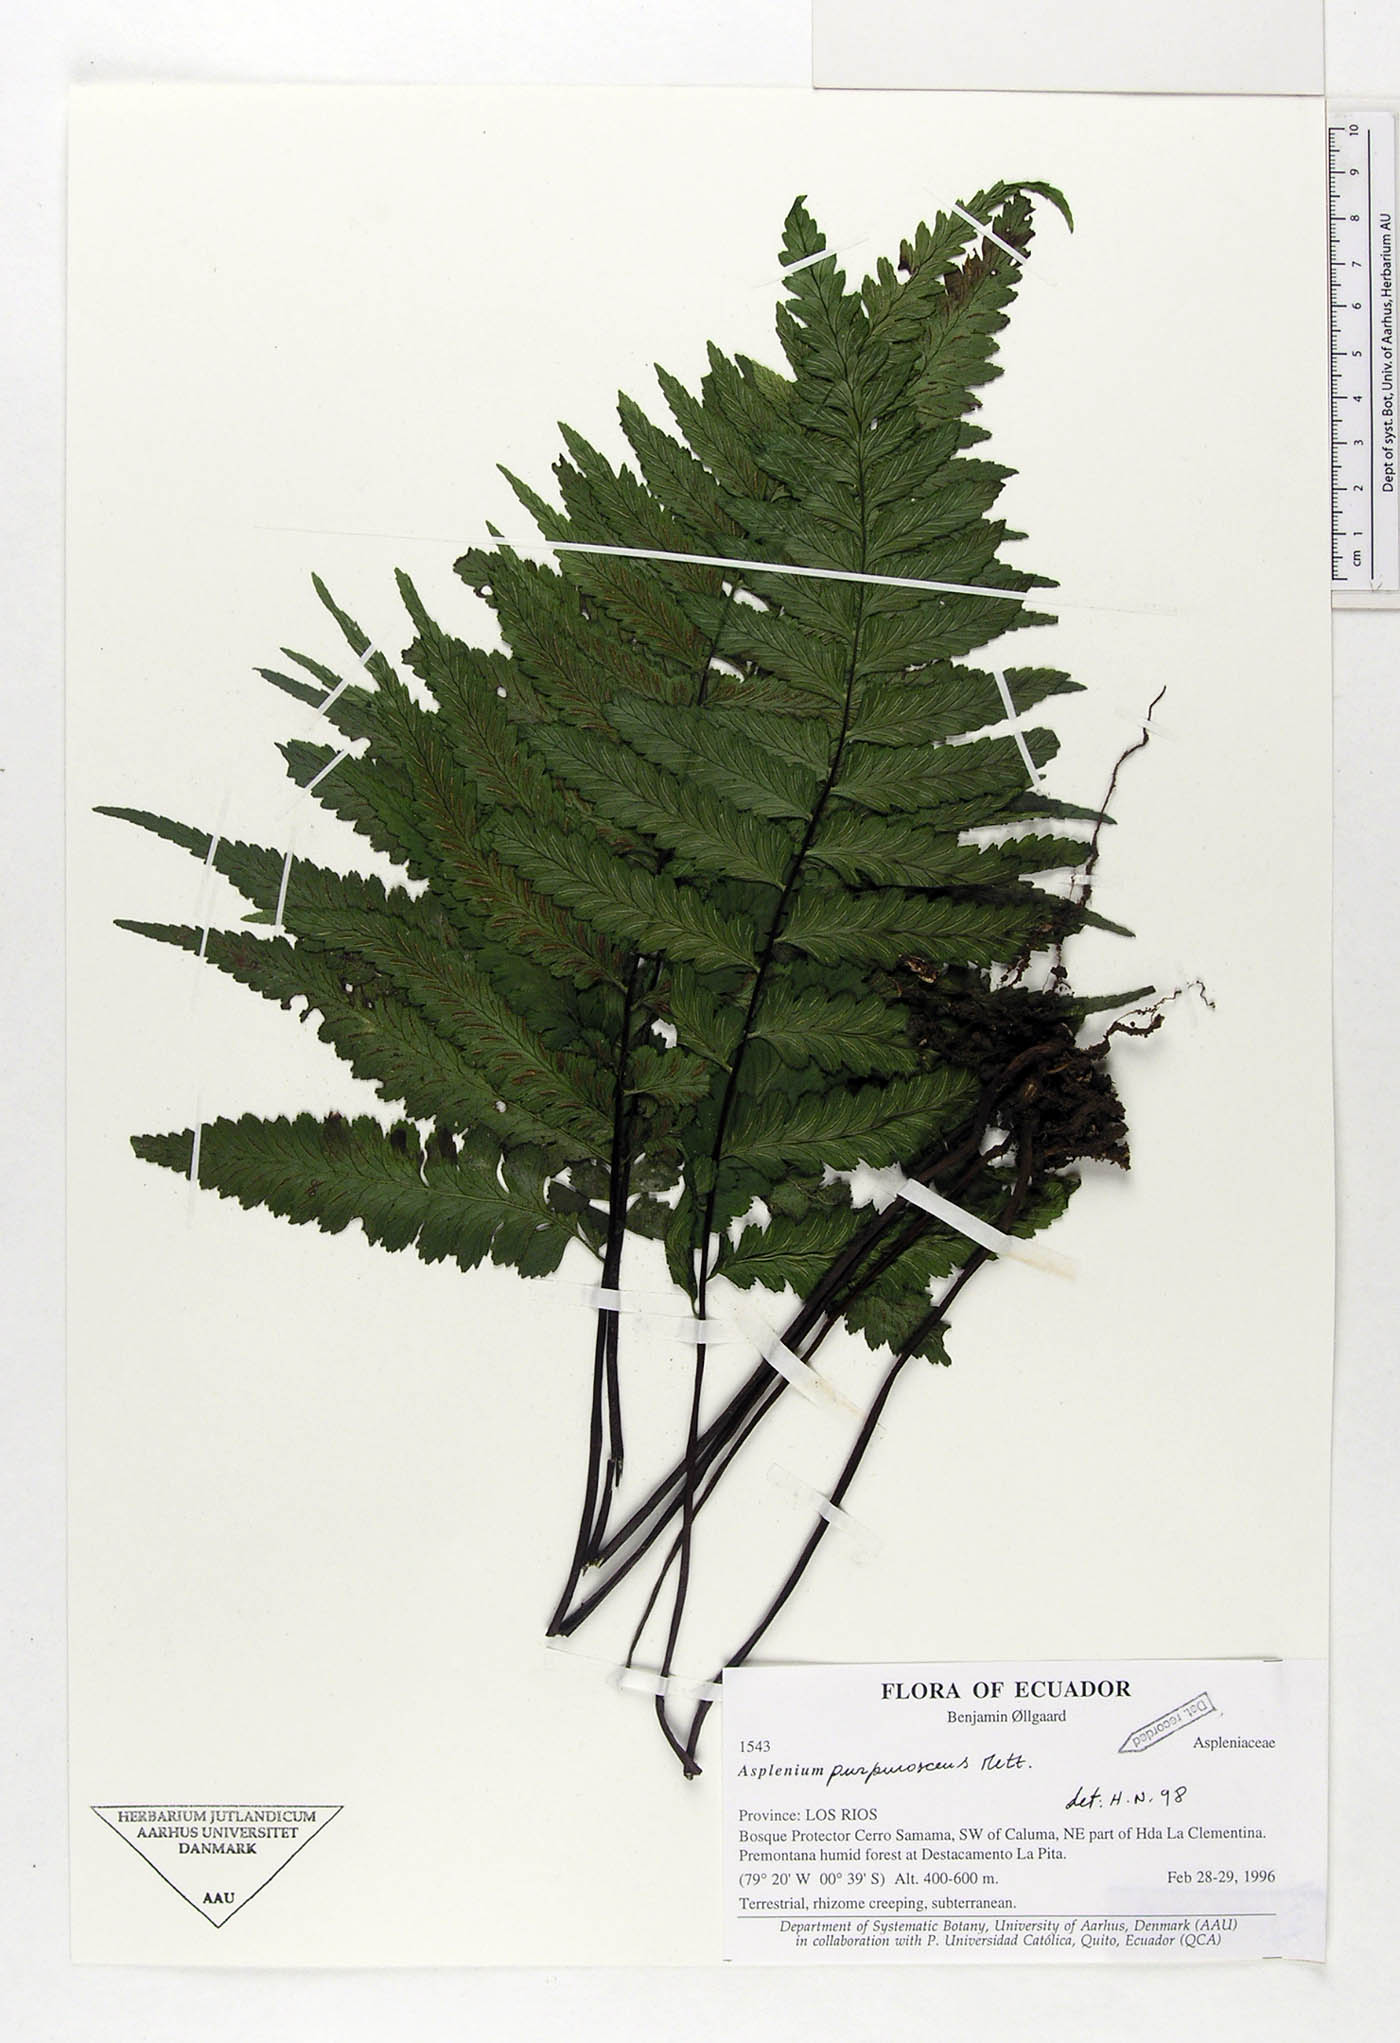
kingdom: Plantae
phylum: Tracheophyta
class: Polypodiopsida
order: Polypodiales
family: Aspleniaceae
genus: Hymenasplenium
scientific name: Hymenasplenium purpurascens
